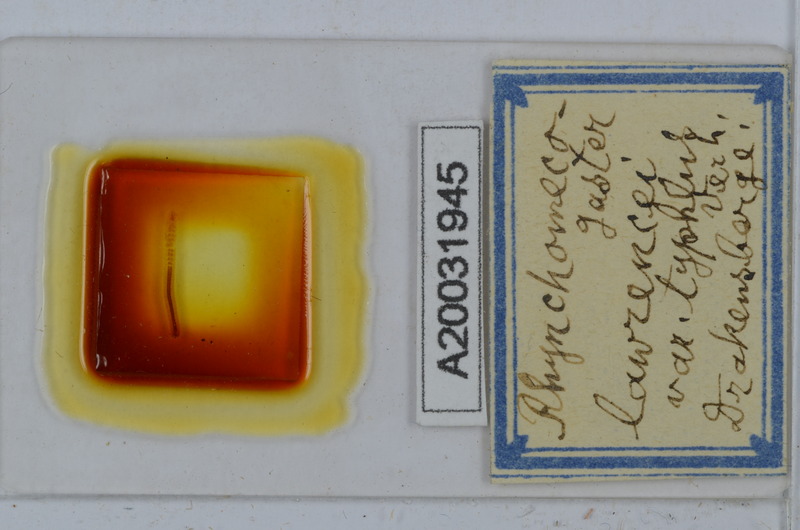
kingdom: Animalia
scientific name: Animalia
